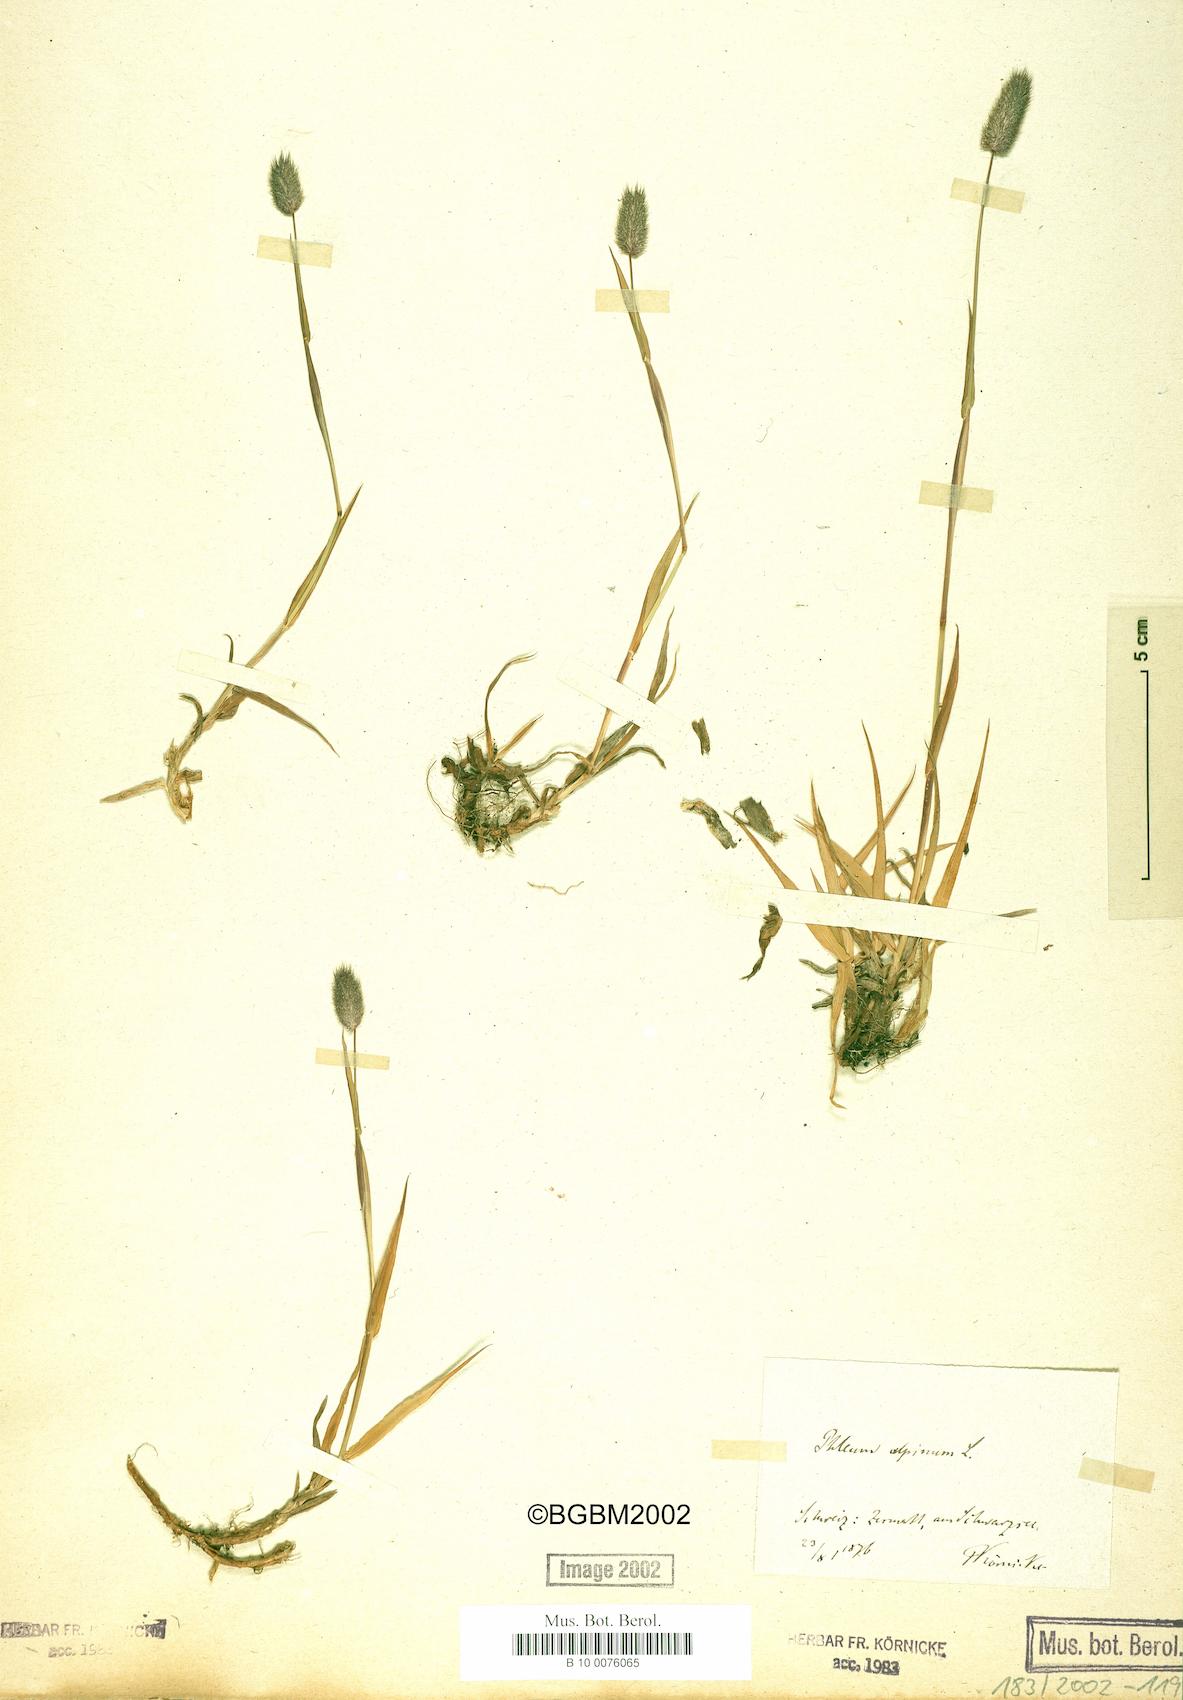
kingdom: Plantae
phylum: Tracheophyta
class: Liliopsida
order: Poales
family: Poaceae
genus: Phleum
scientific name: Phleum alpinum
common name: Alpine cat's-tail
